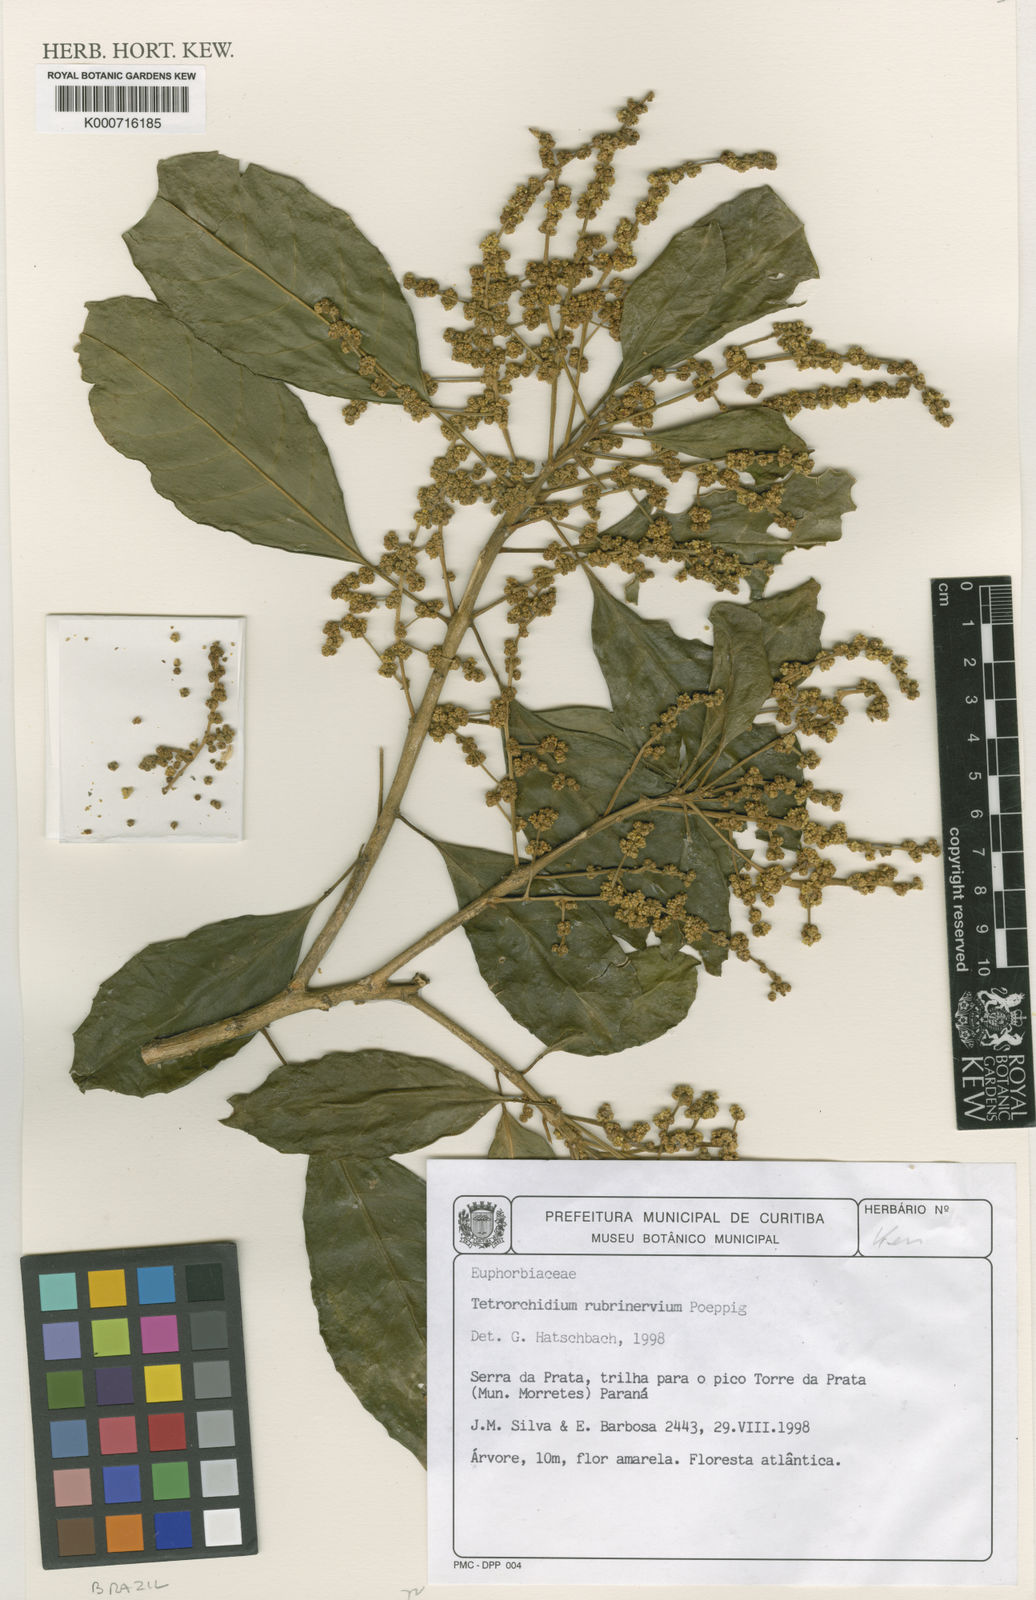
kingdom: Plantae
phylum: Tracheophyta
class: Magnoliopsida
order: Malpighiales
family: Euphorbiaceae
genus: Tetrorchidium
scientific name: Tetrorchidium rubrivenium
